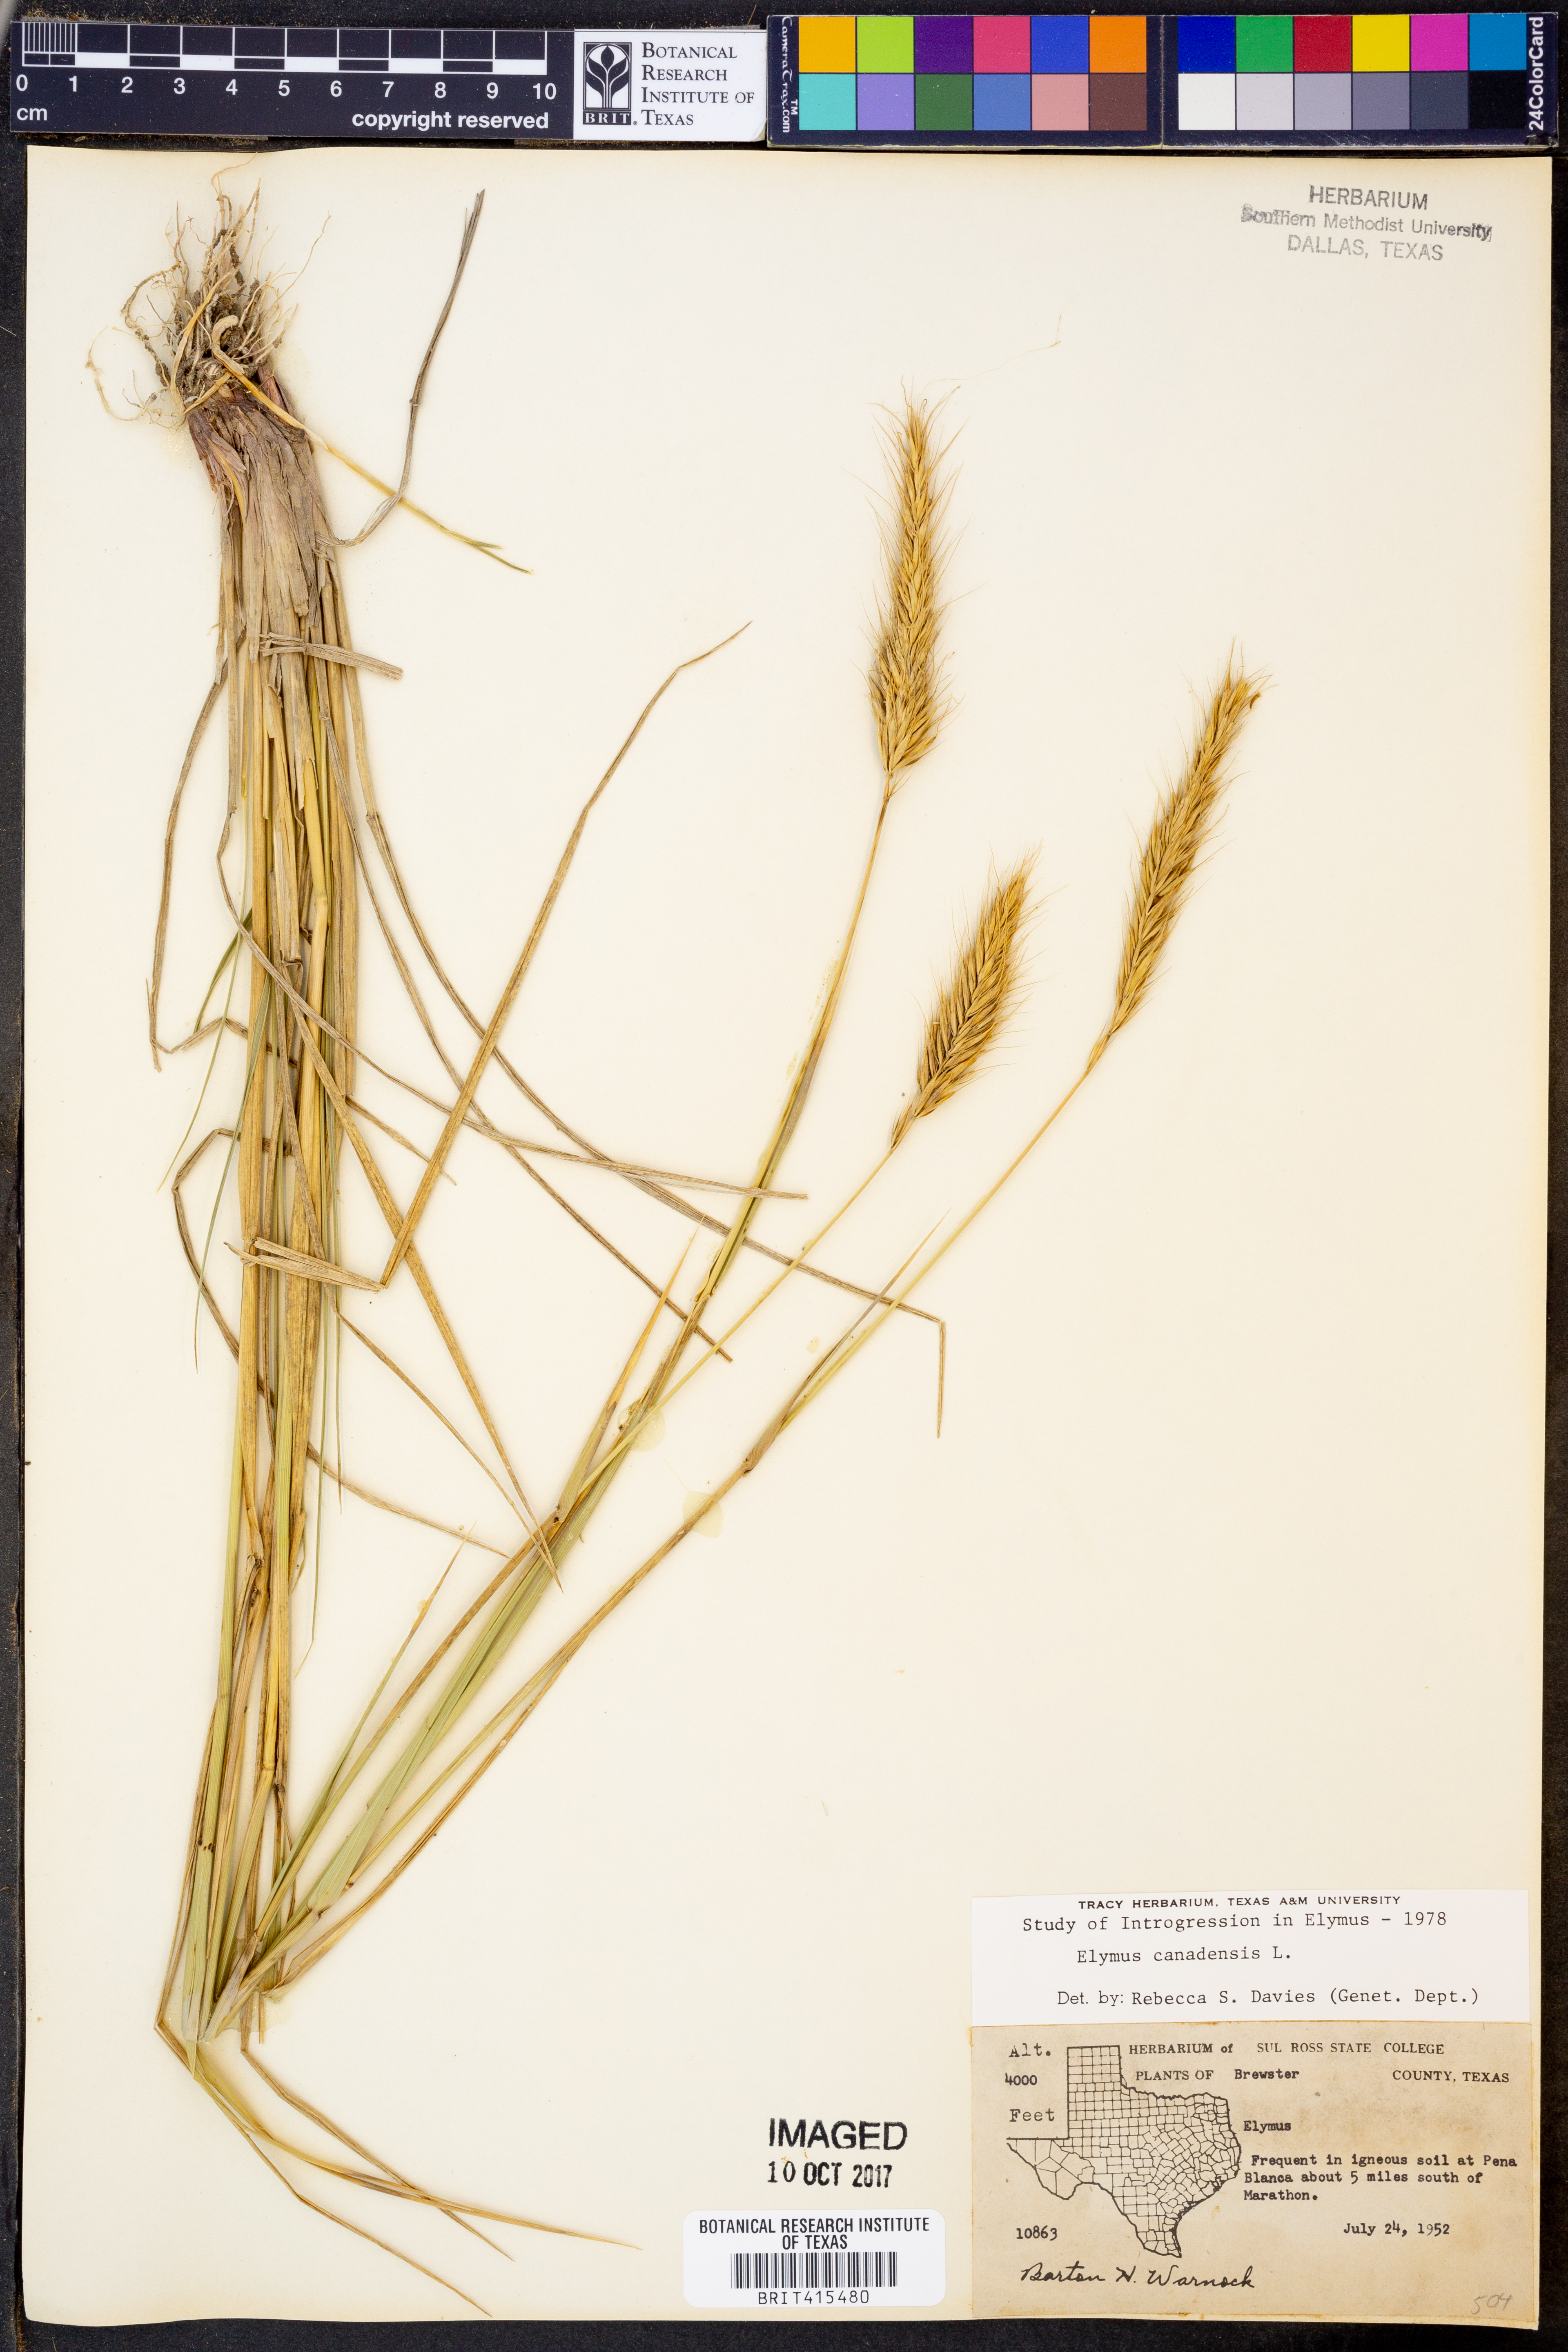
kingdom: Plantae
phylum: Tracheophyta
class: Liliopsida
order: Poales
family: Poaceae
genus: Elymus
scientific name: Elymus canadensis
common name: Canada wild rye
